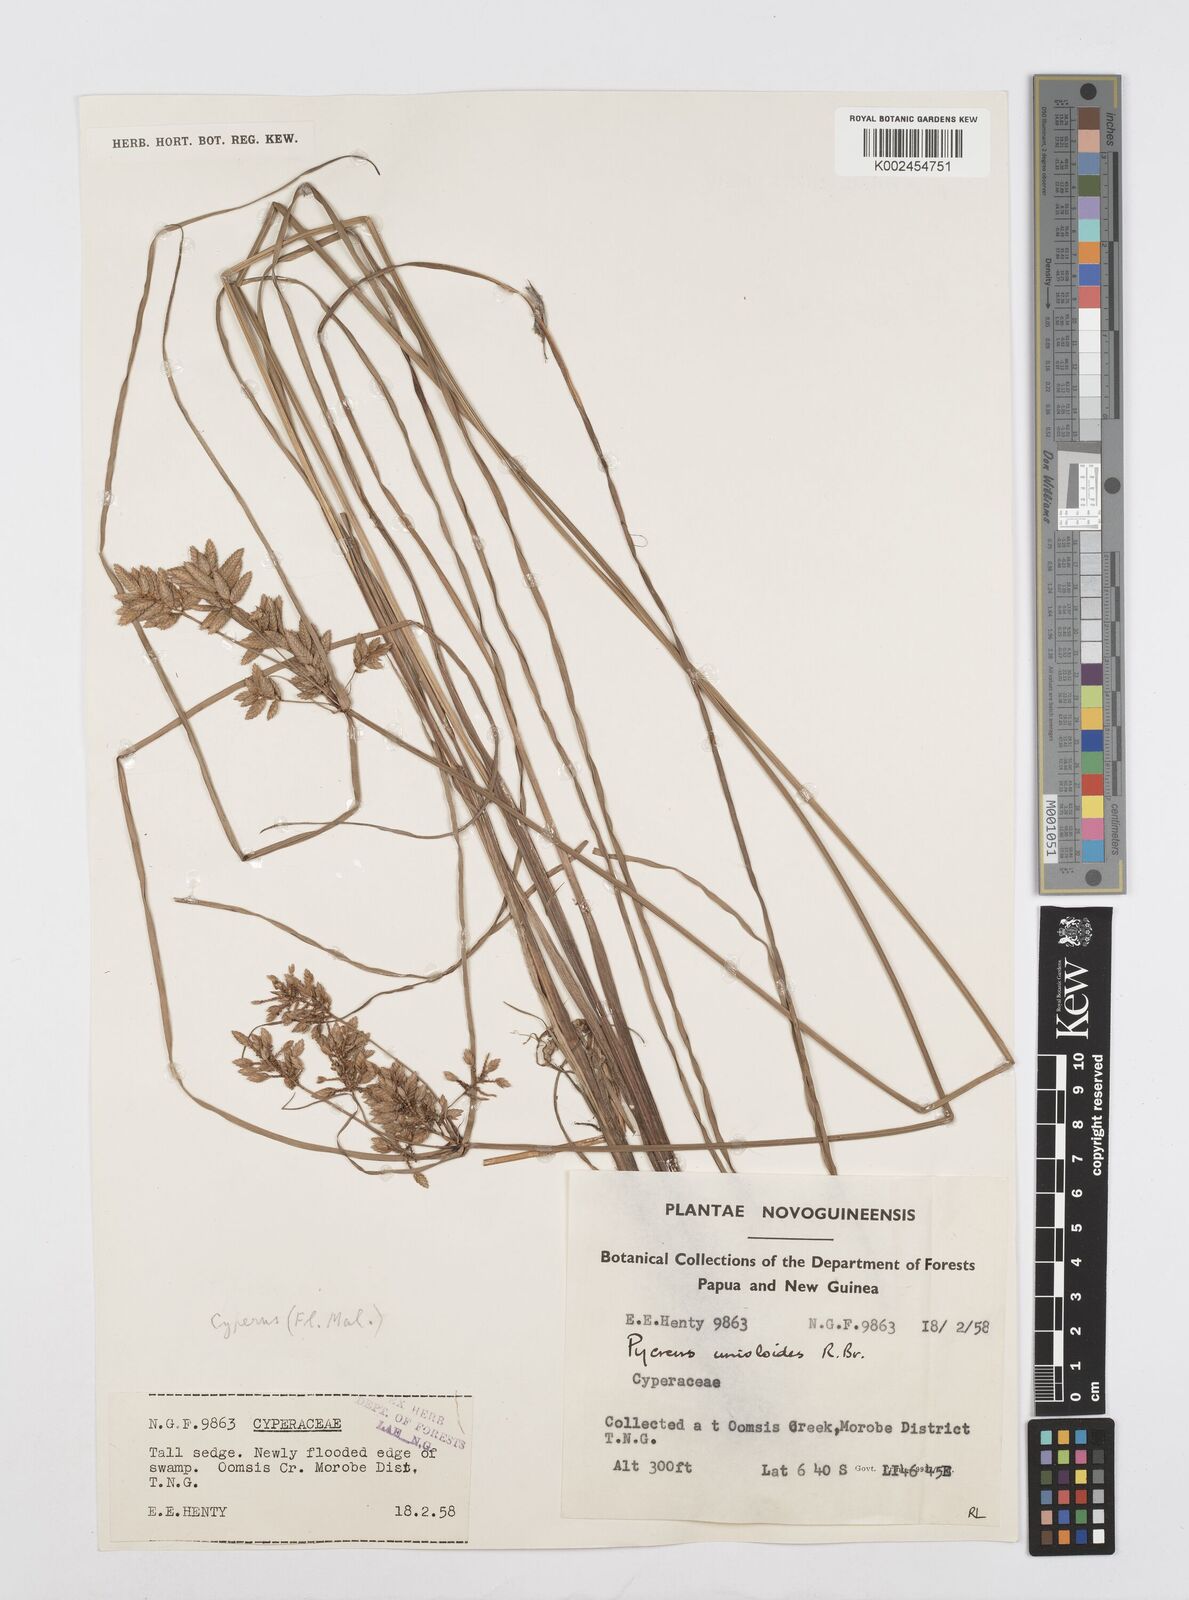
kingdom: Plantae
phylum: Tracheophyta
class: Liliopsida
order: Poales
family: Cyperaceae
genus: Cyperus
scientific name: Cyperus unioloides
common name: Uniola flatsedge
